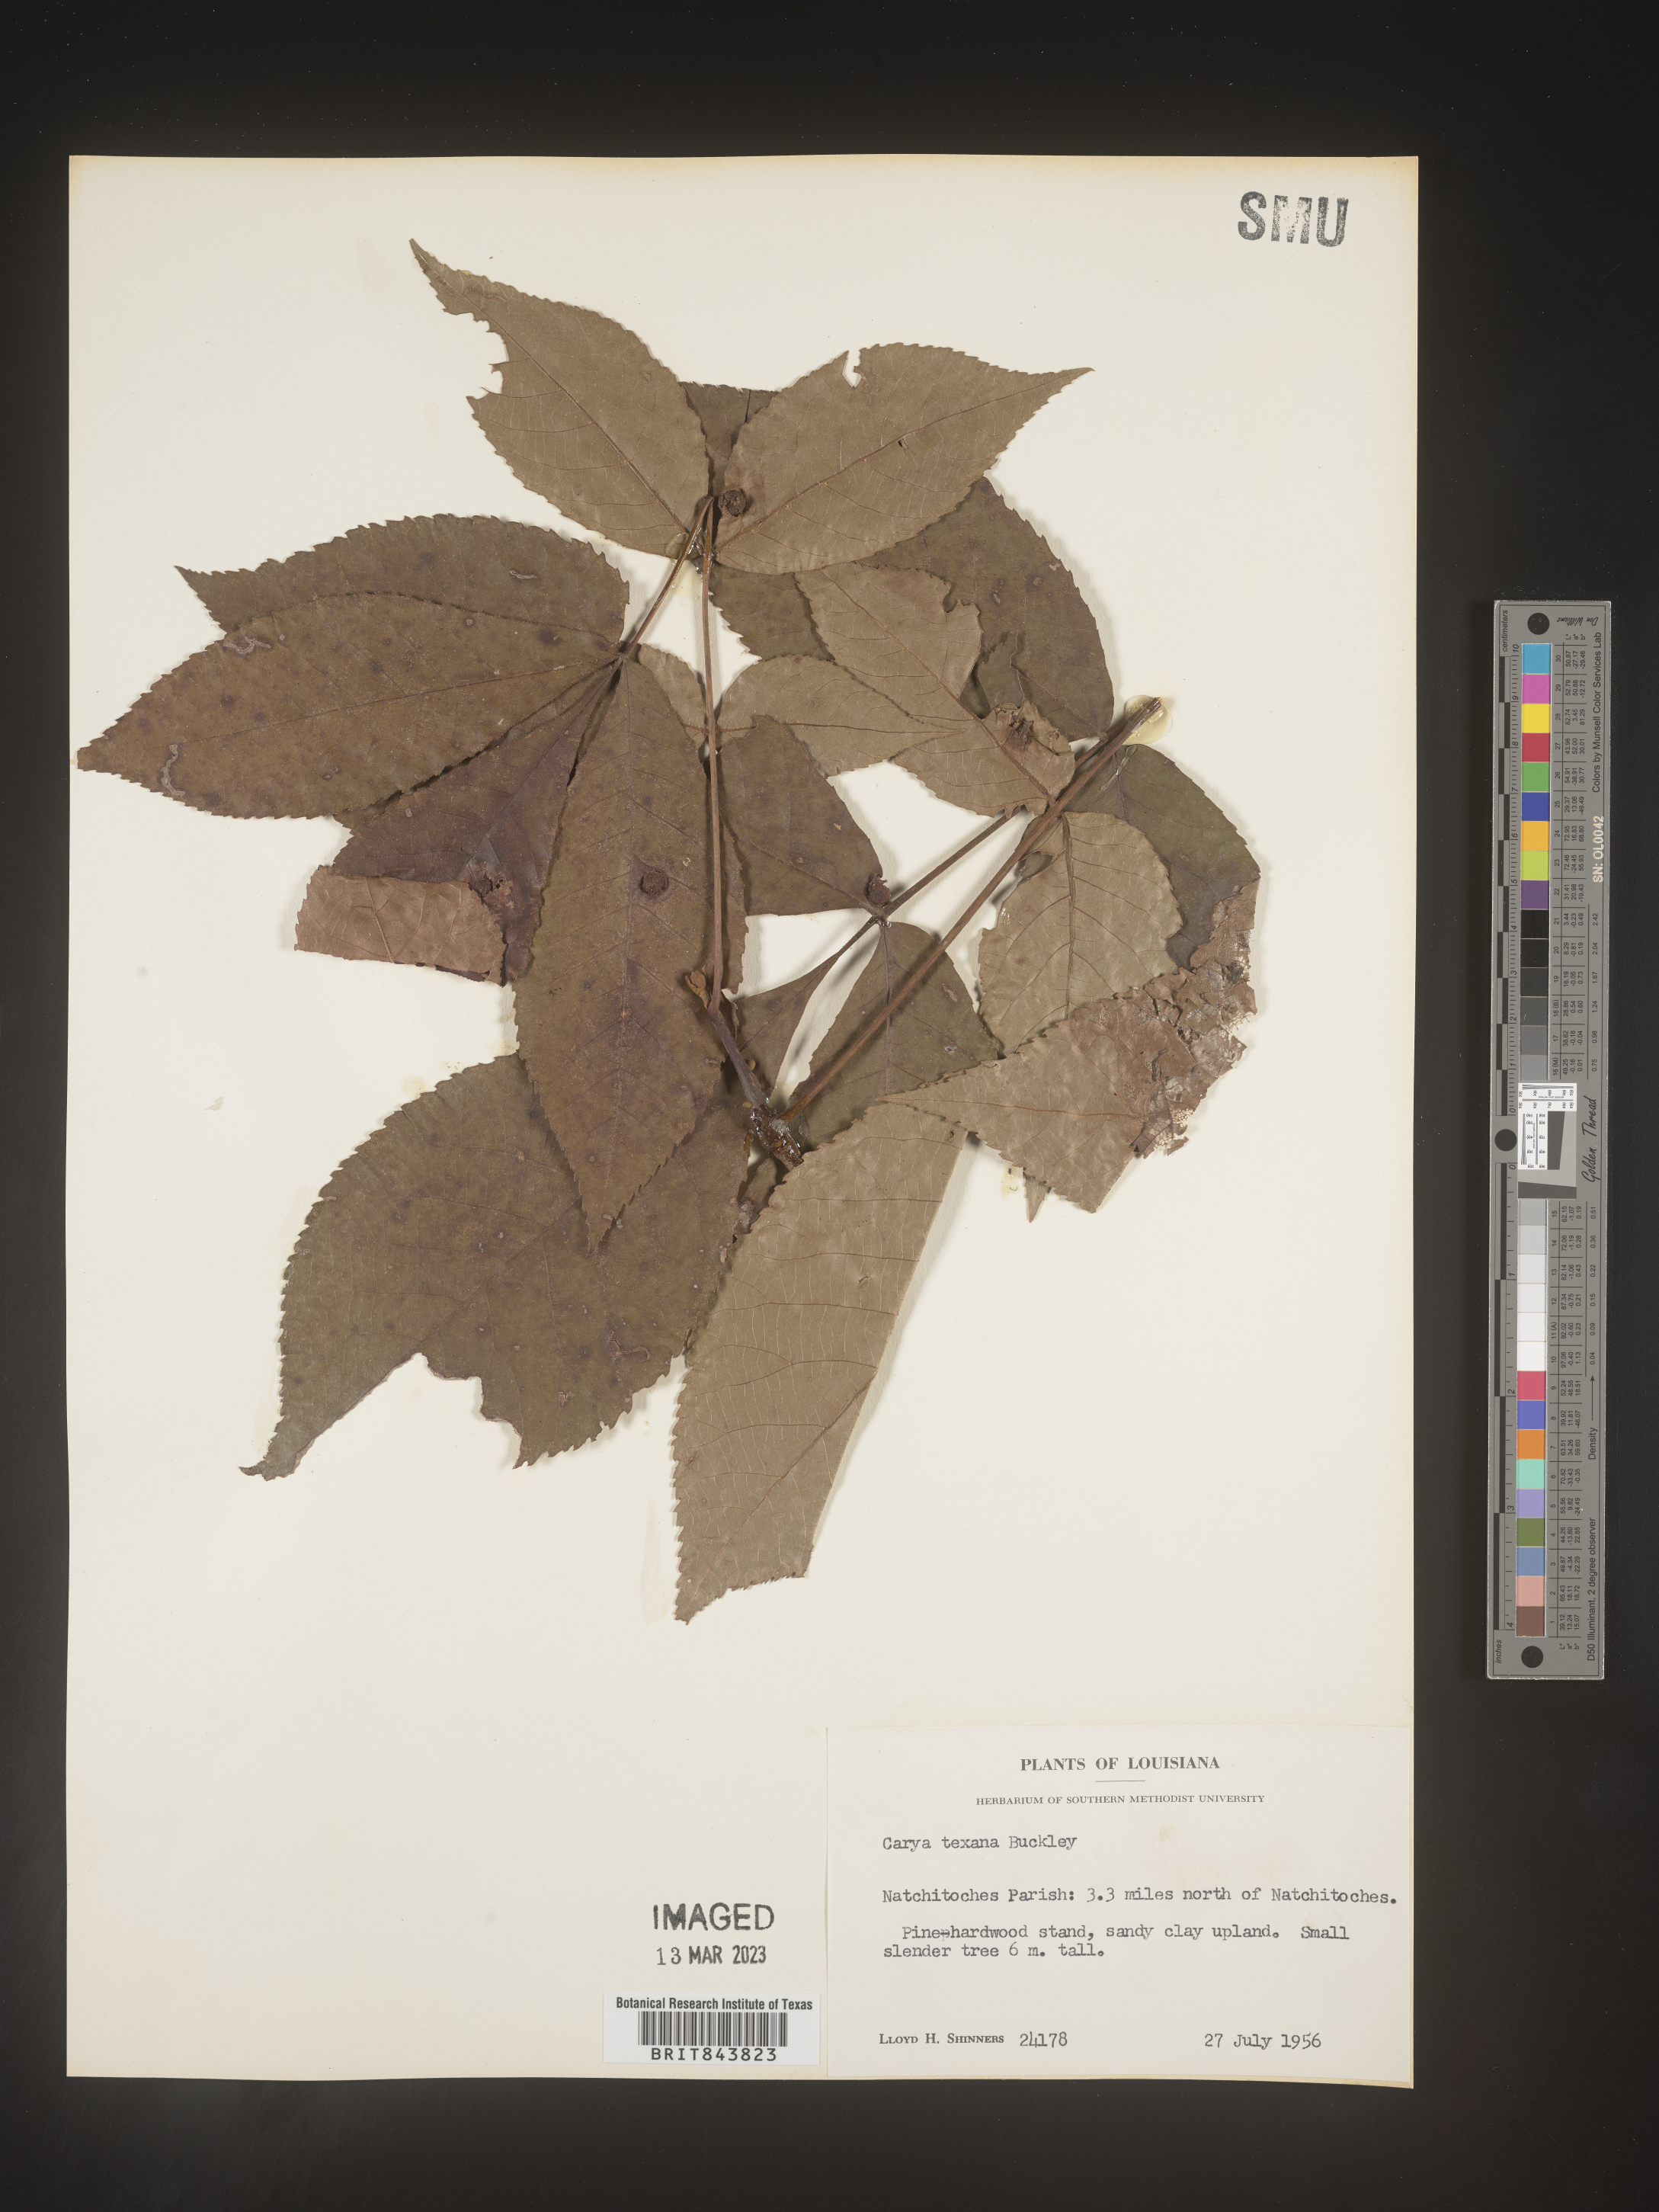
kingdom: Plantae
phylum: Tracheophyta
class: Magnoliopsida
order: Fagales
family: Juglandaceae
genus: Carya
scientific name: Carya texana
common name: Black hickory
